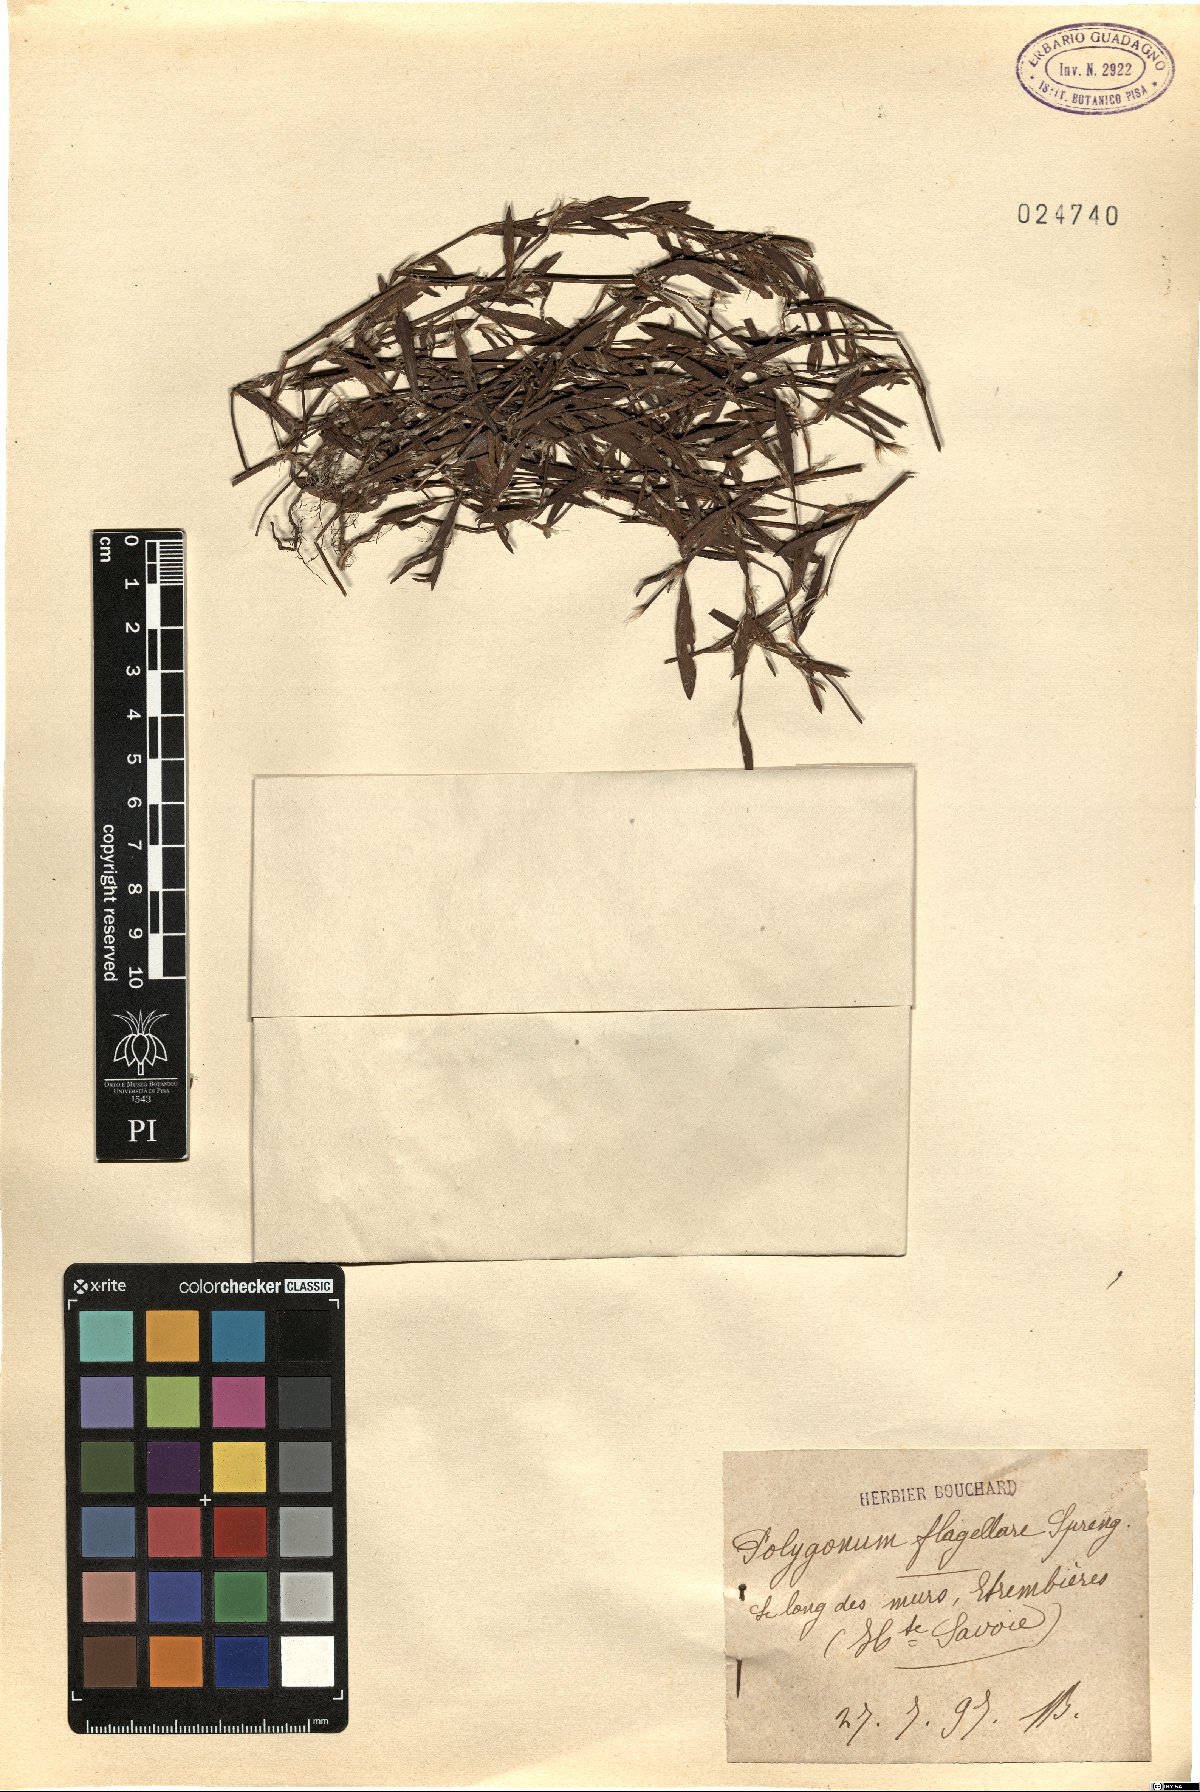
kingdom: Plantae
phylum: Tracheophyta
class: Magnoliopsida
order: Caryophyllales
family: Polygonaceae
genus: Polygonum
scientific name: Polygonum bellardii
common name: Narrowleaf knotweed
